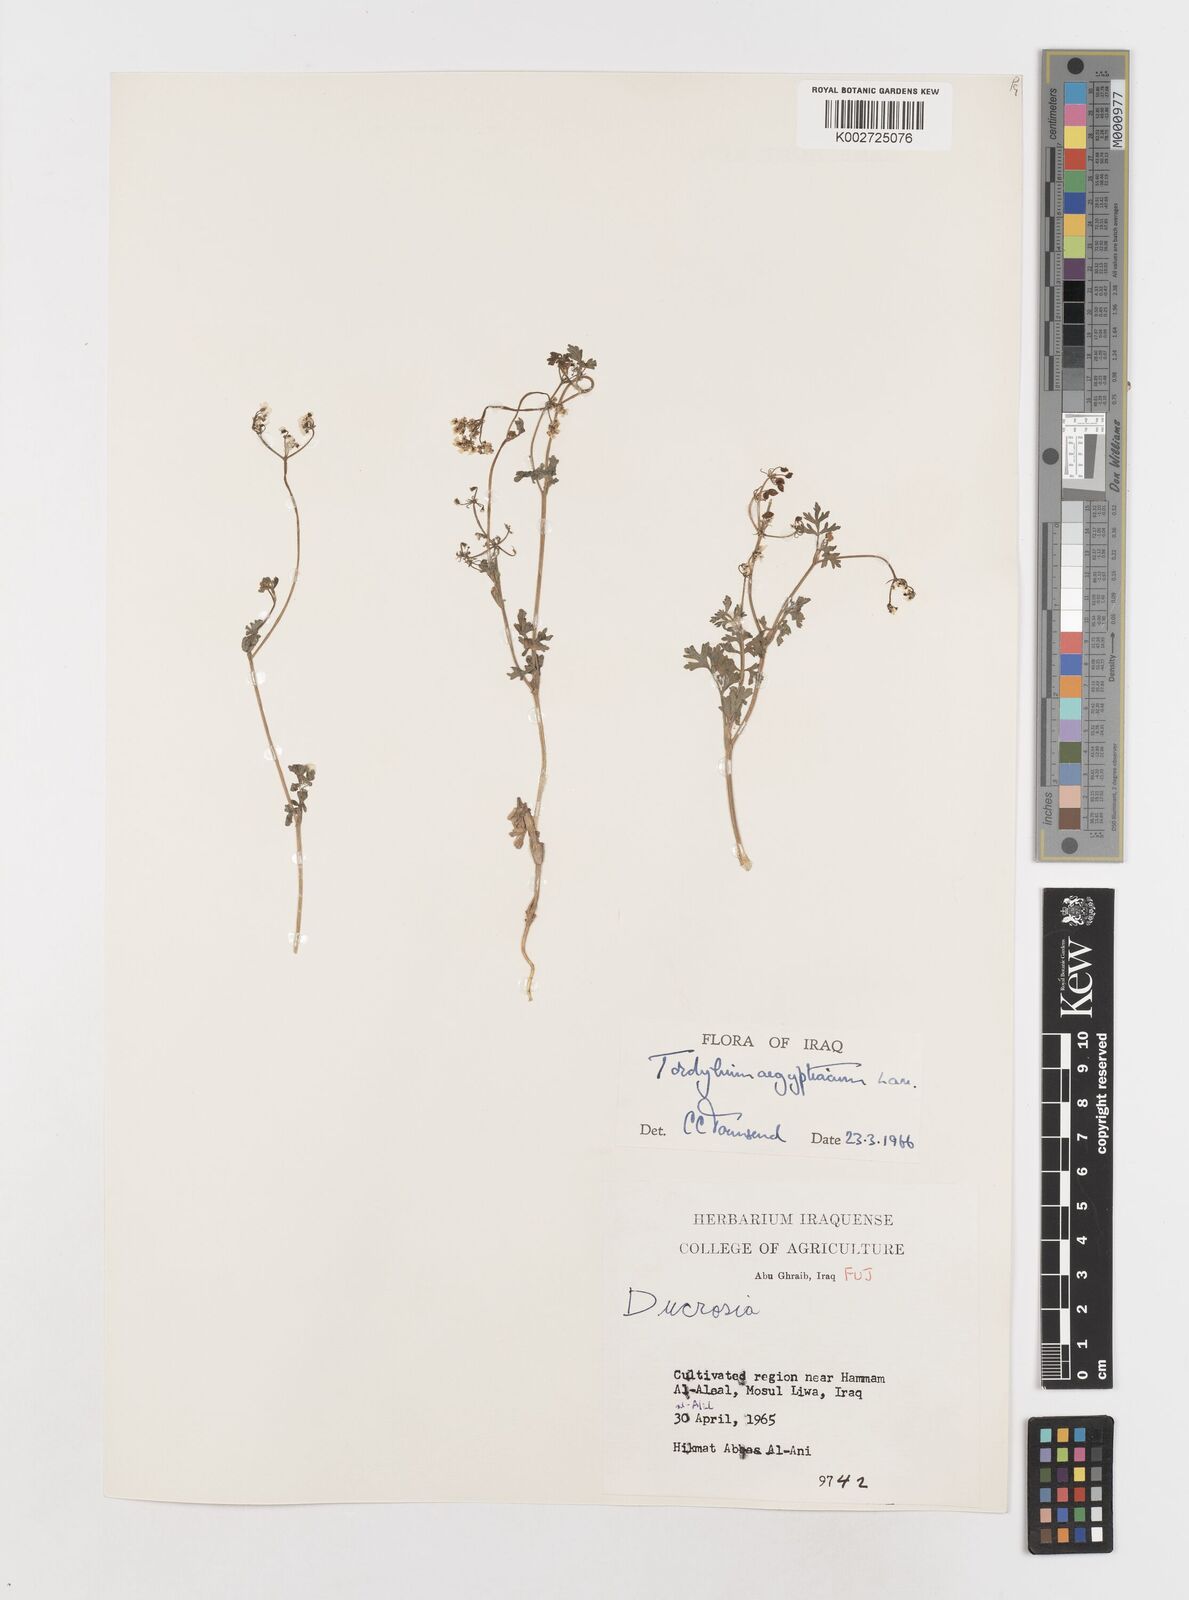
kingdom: Plantae
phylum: Tracheophyta
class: Magnoliopsida
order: Apiales
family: Apiaceae
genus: Tordylium
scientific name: Tordylium aegyptiacum
